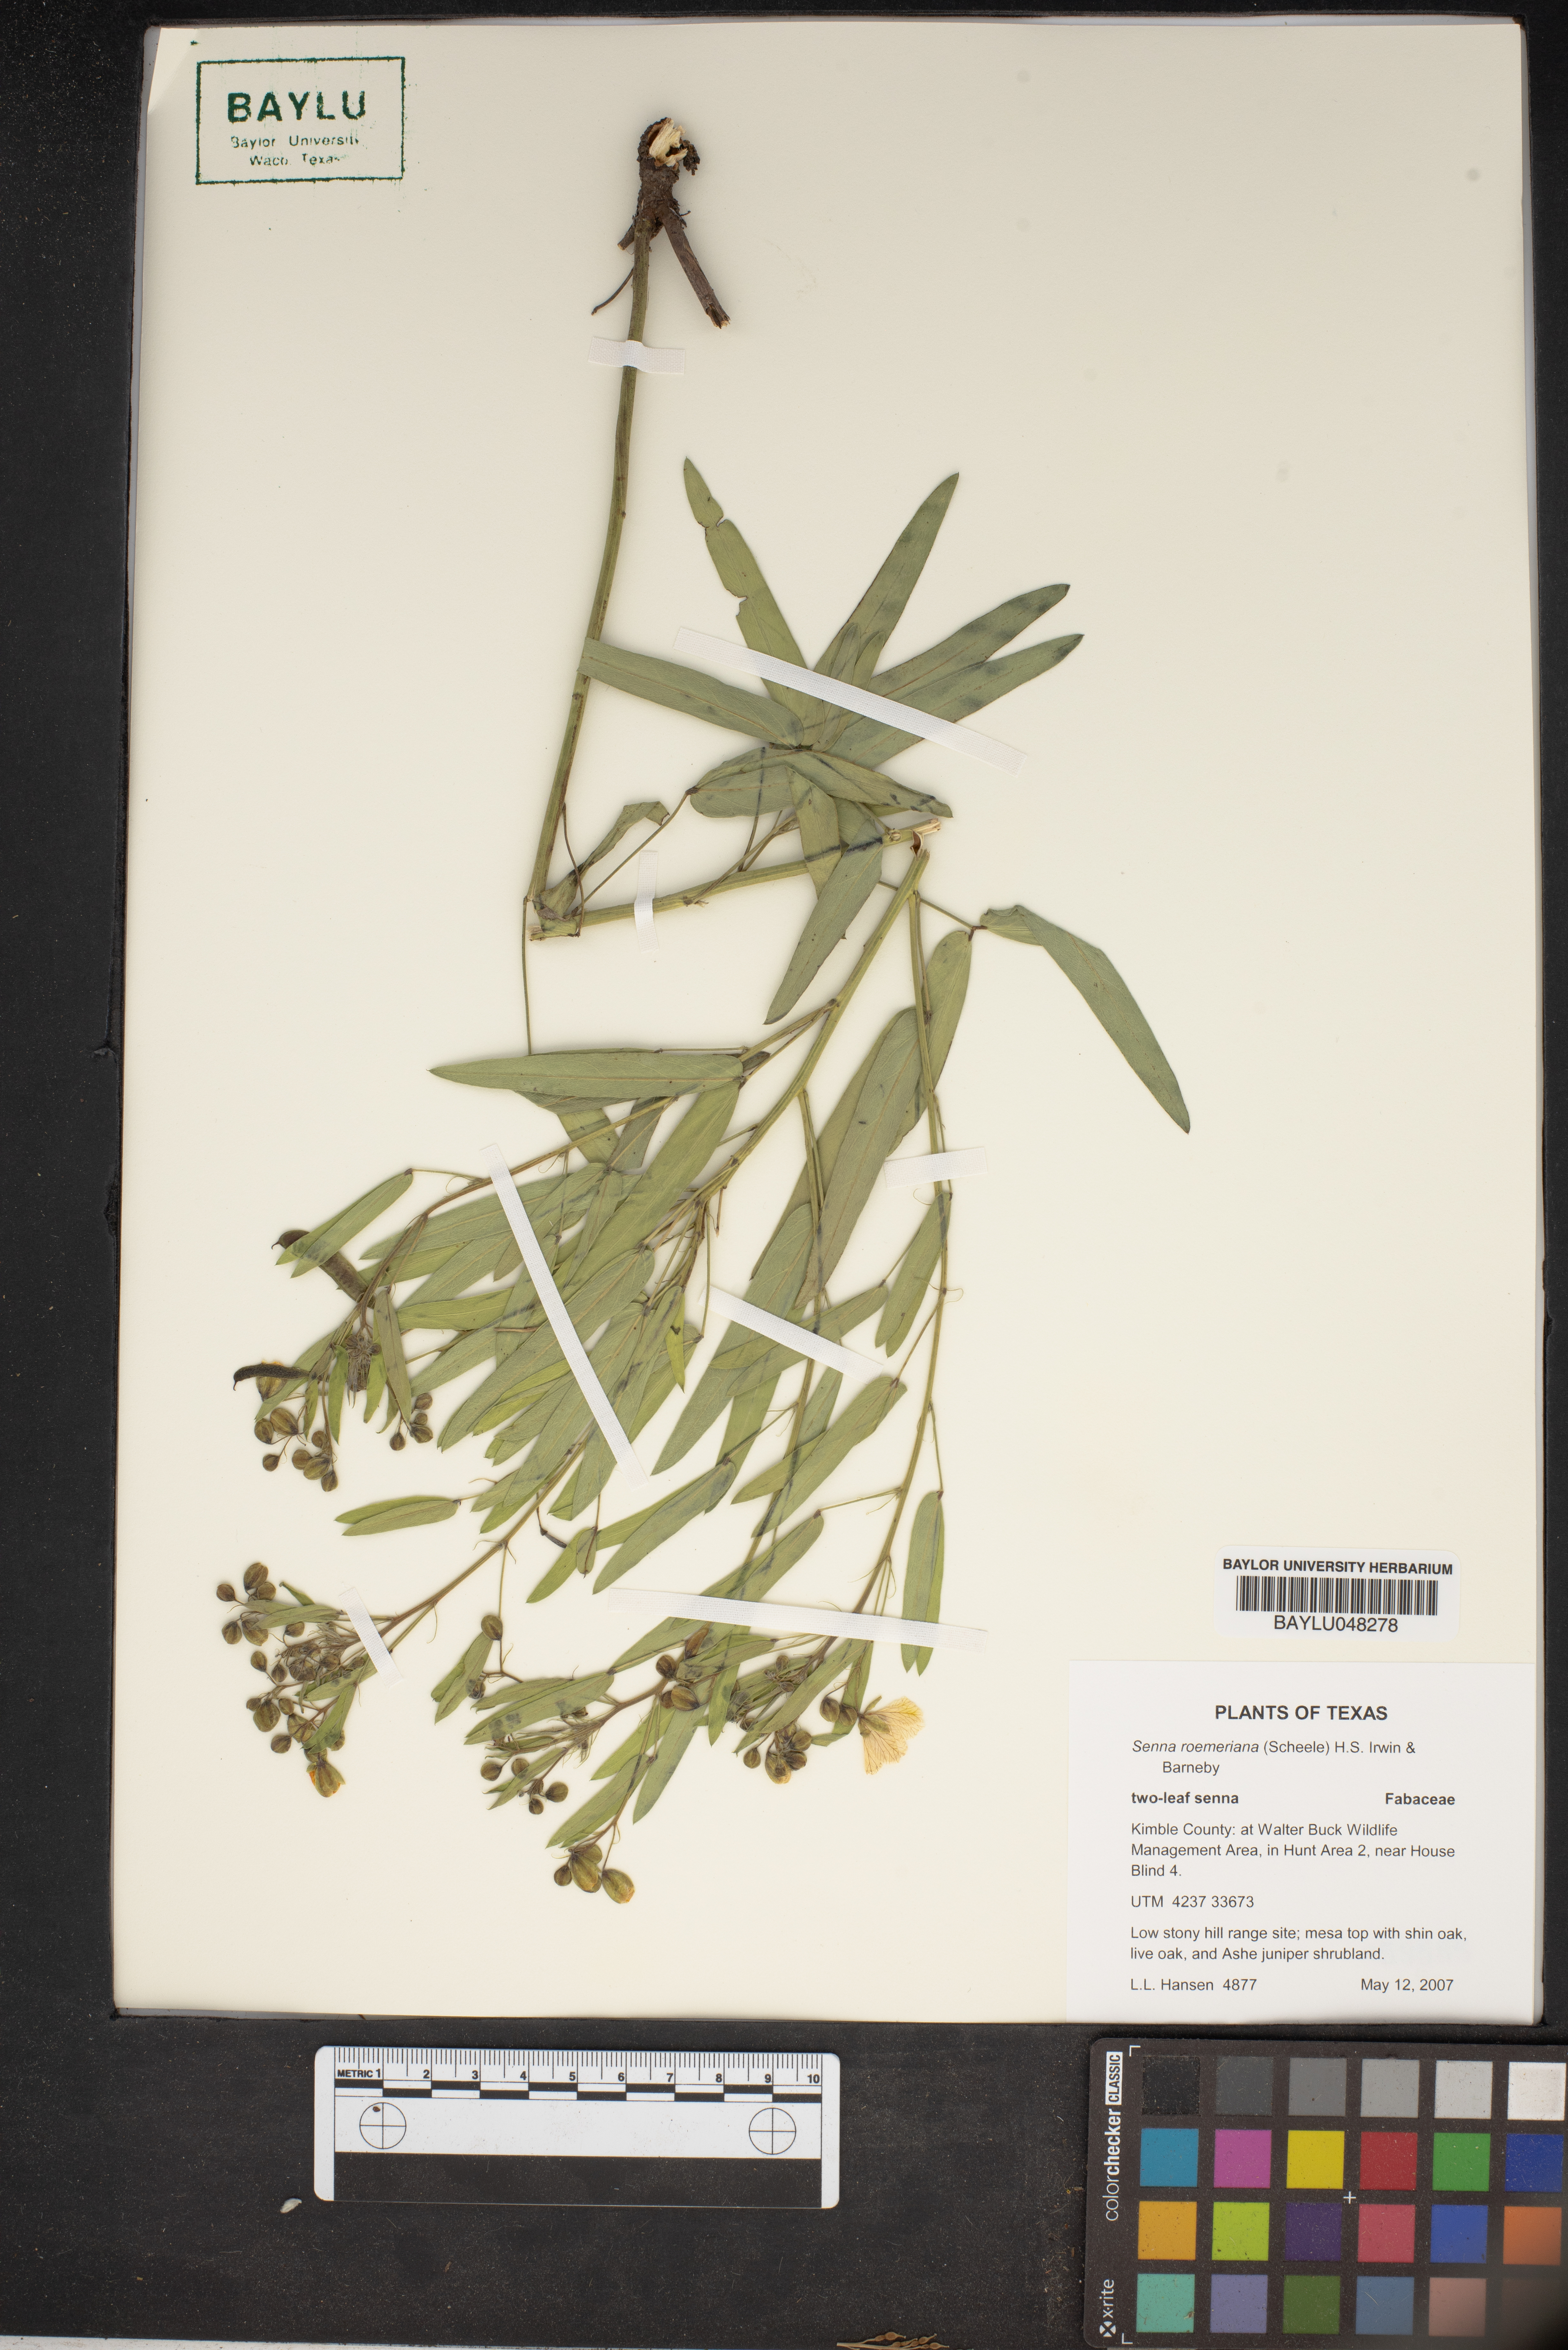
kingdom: Plantae
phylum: Tracheophyta
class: Magnoliopsida
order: Fabales
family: Fabaceae
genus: Senna
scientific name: Senna roemeriana
